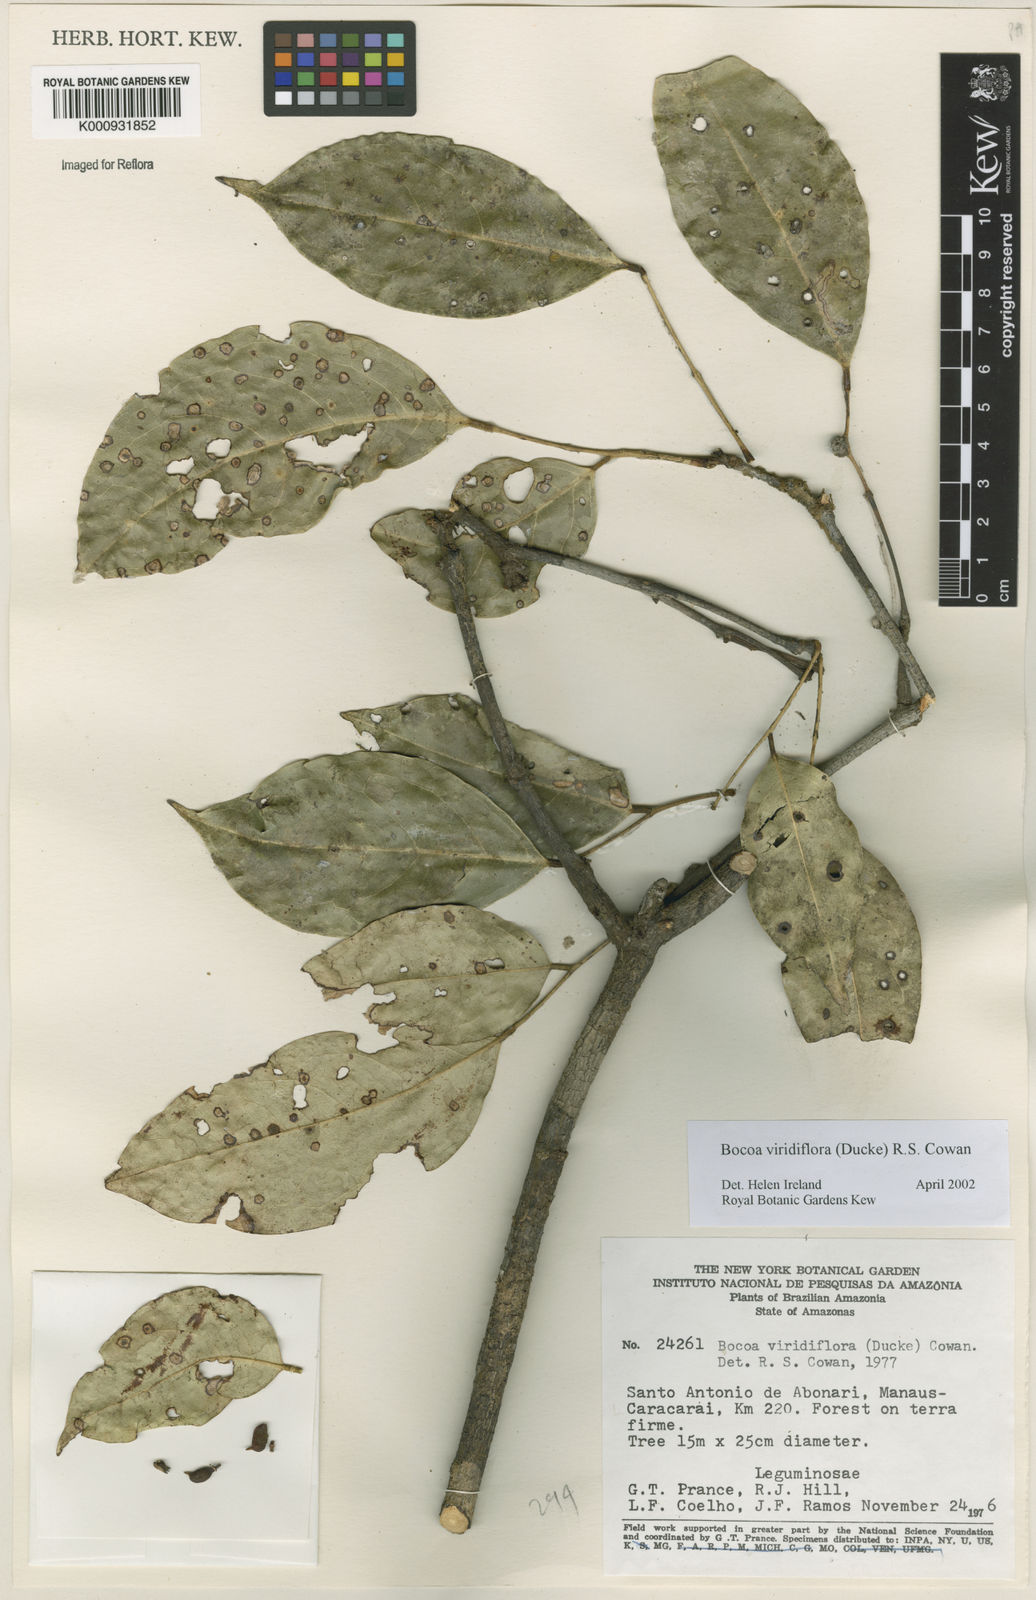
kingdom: Plantae
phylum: Tracheophyta
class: Magnoliopsida
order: Fabales
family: Fabaceae
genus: Bocoa
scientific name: Bocoa viridiflora
